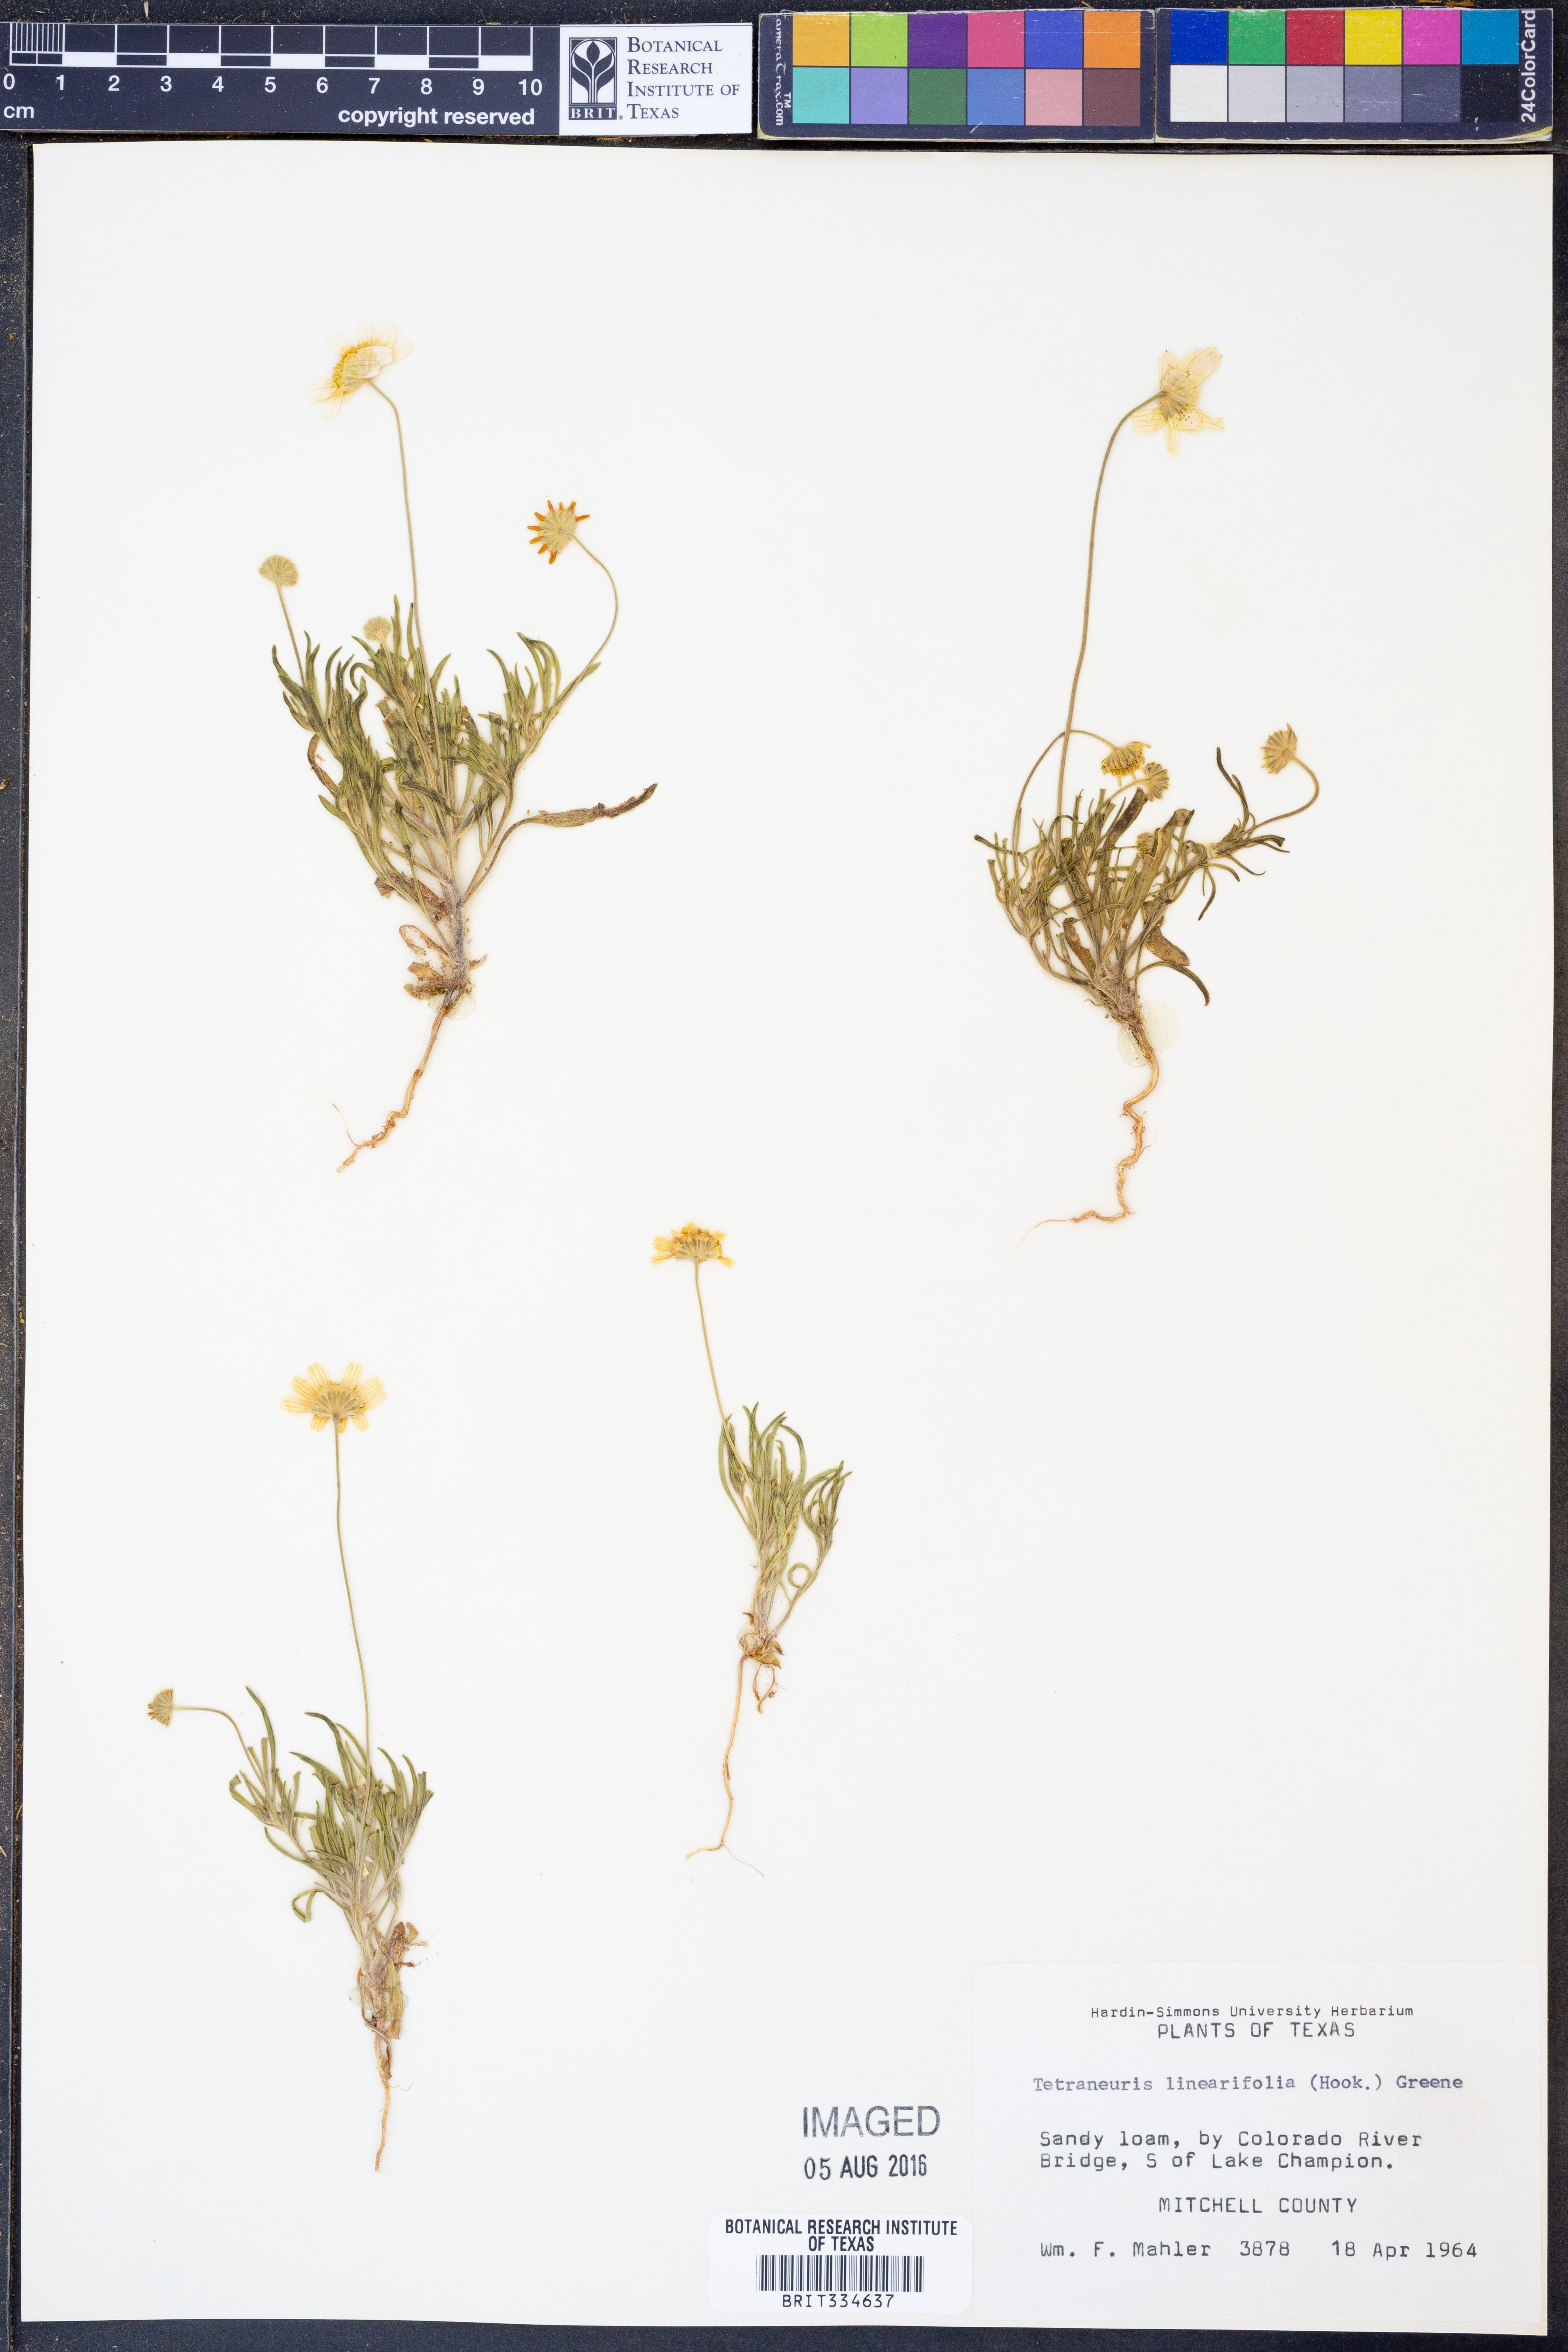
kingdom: Plantae
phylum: Tracheophyta
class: Magnoliopsida
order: Asterales
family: Asteraceae
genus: Tetraneuris
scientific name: Tetraneuris linearifolia
